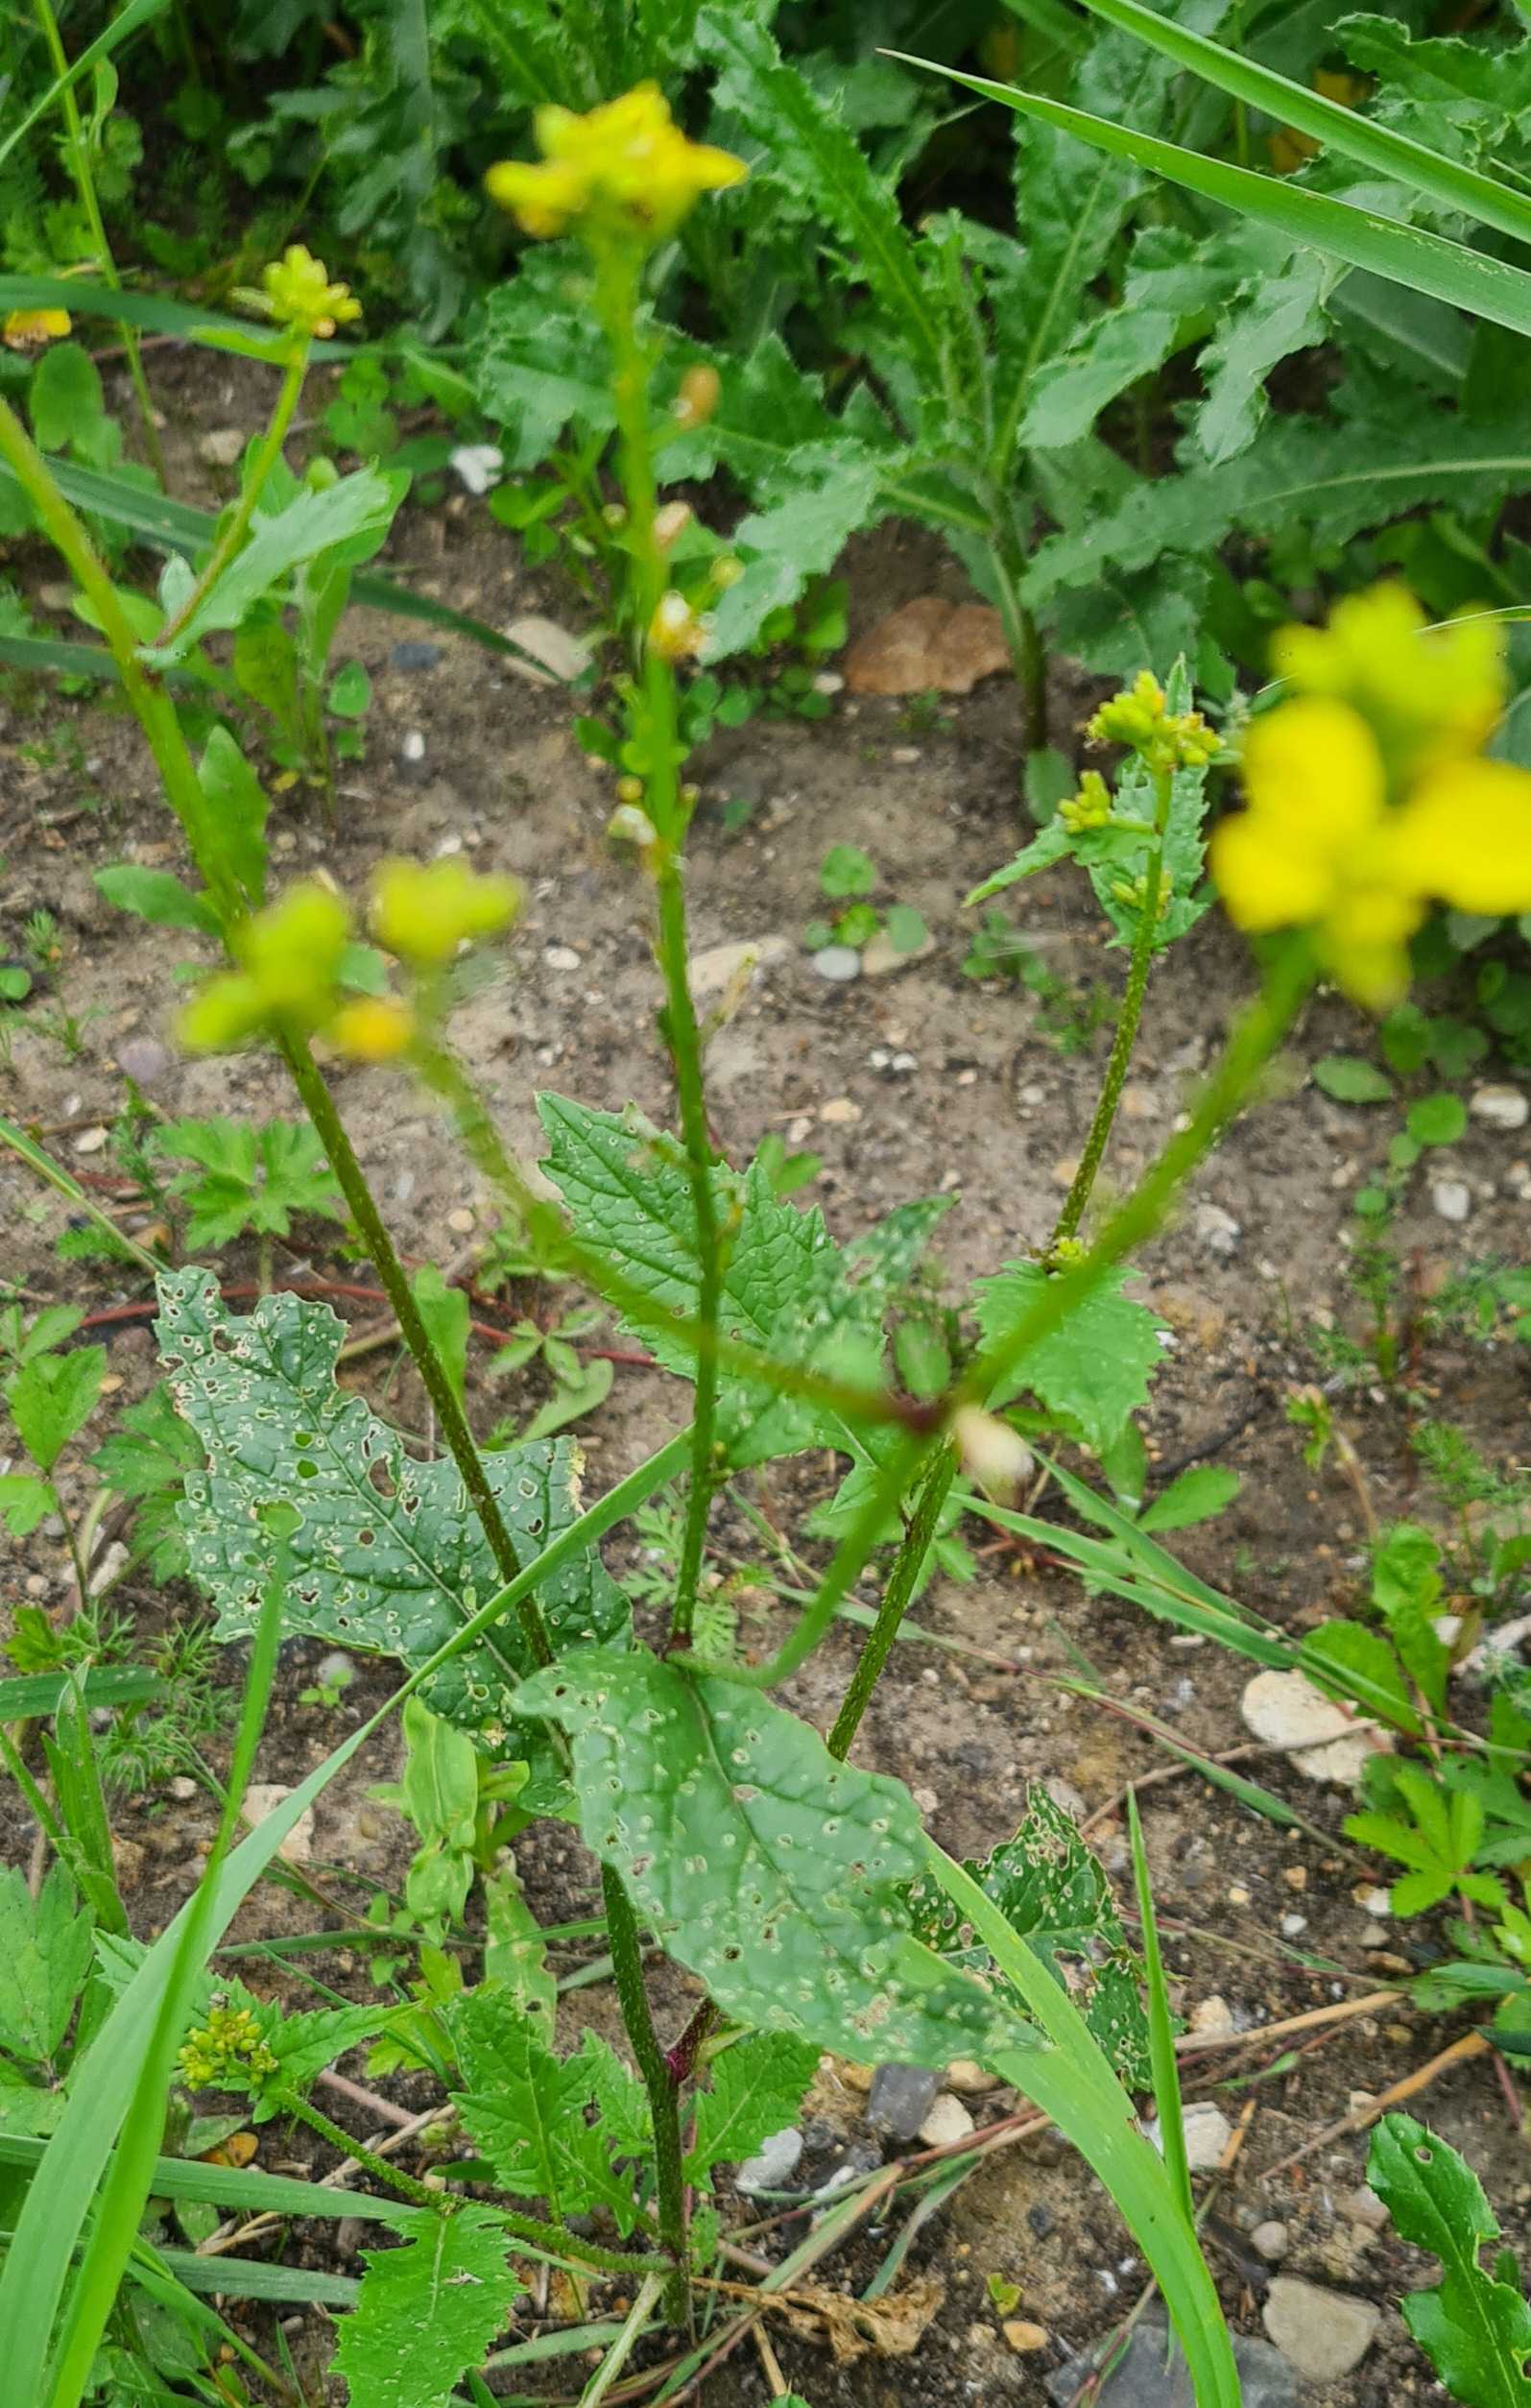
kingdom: Plantae
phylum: Tracheophyta
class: Magnoliopsida
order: Brassicales
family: Brassicaceae
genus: Sinapis
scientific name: Sinapis arvensis
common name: Ager-sennep
